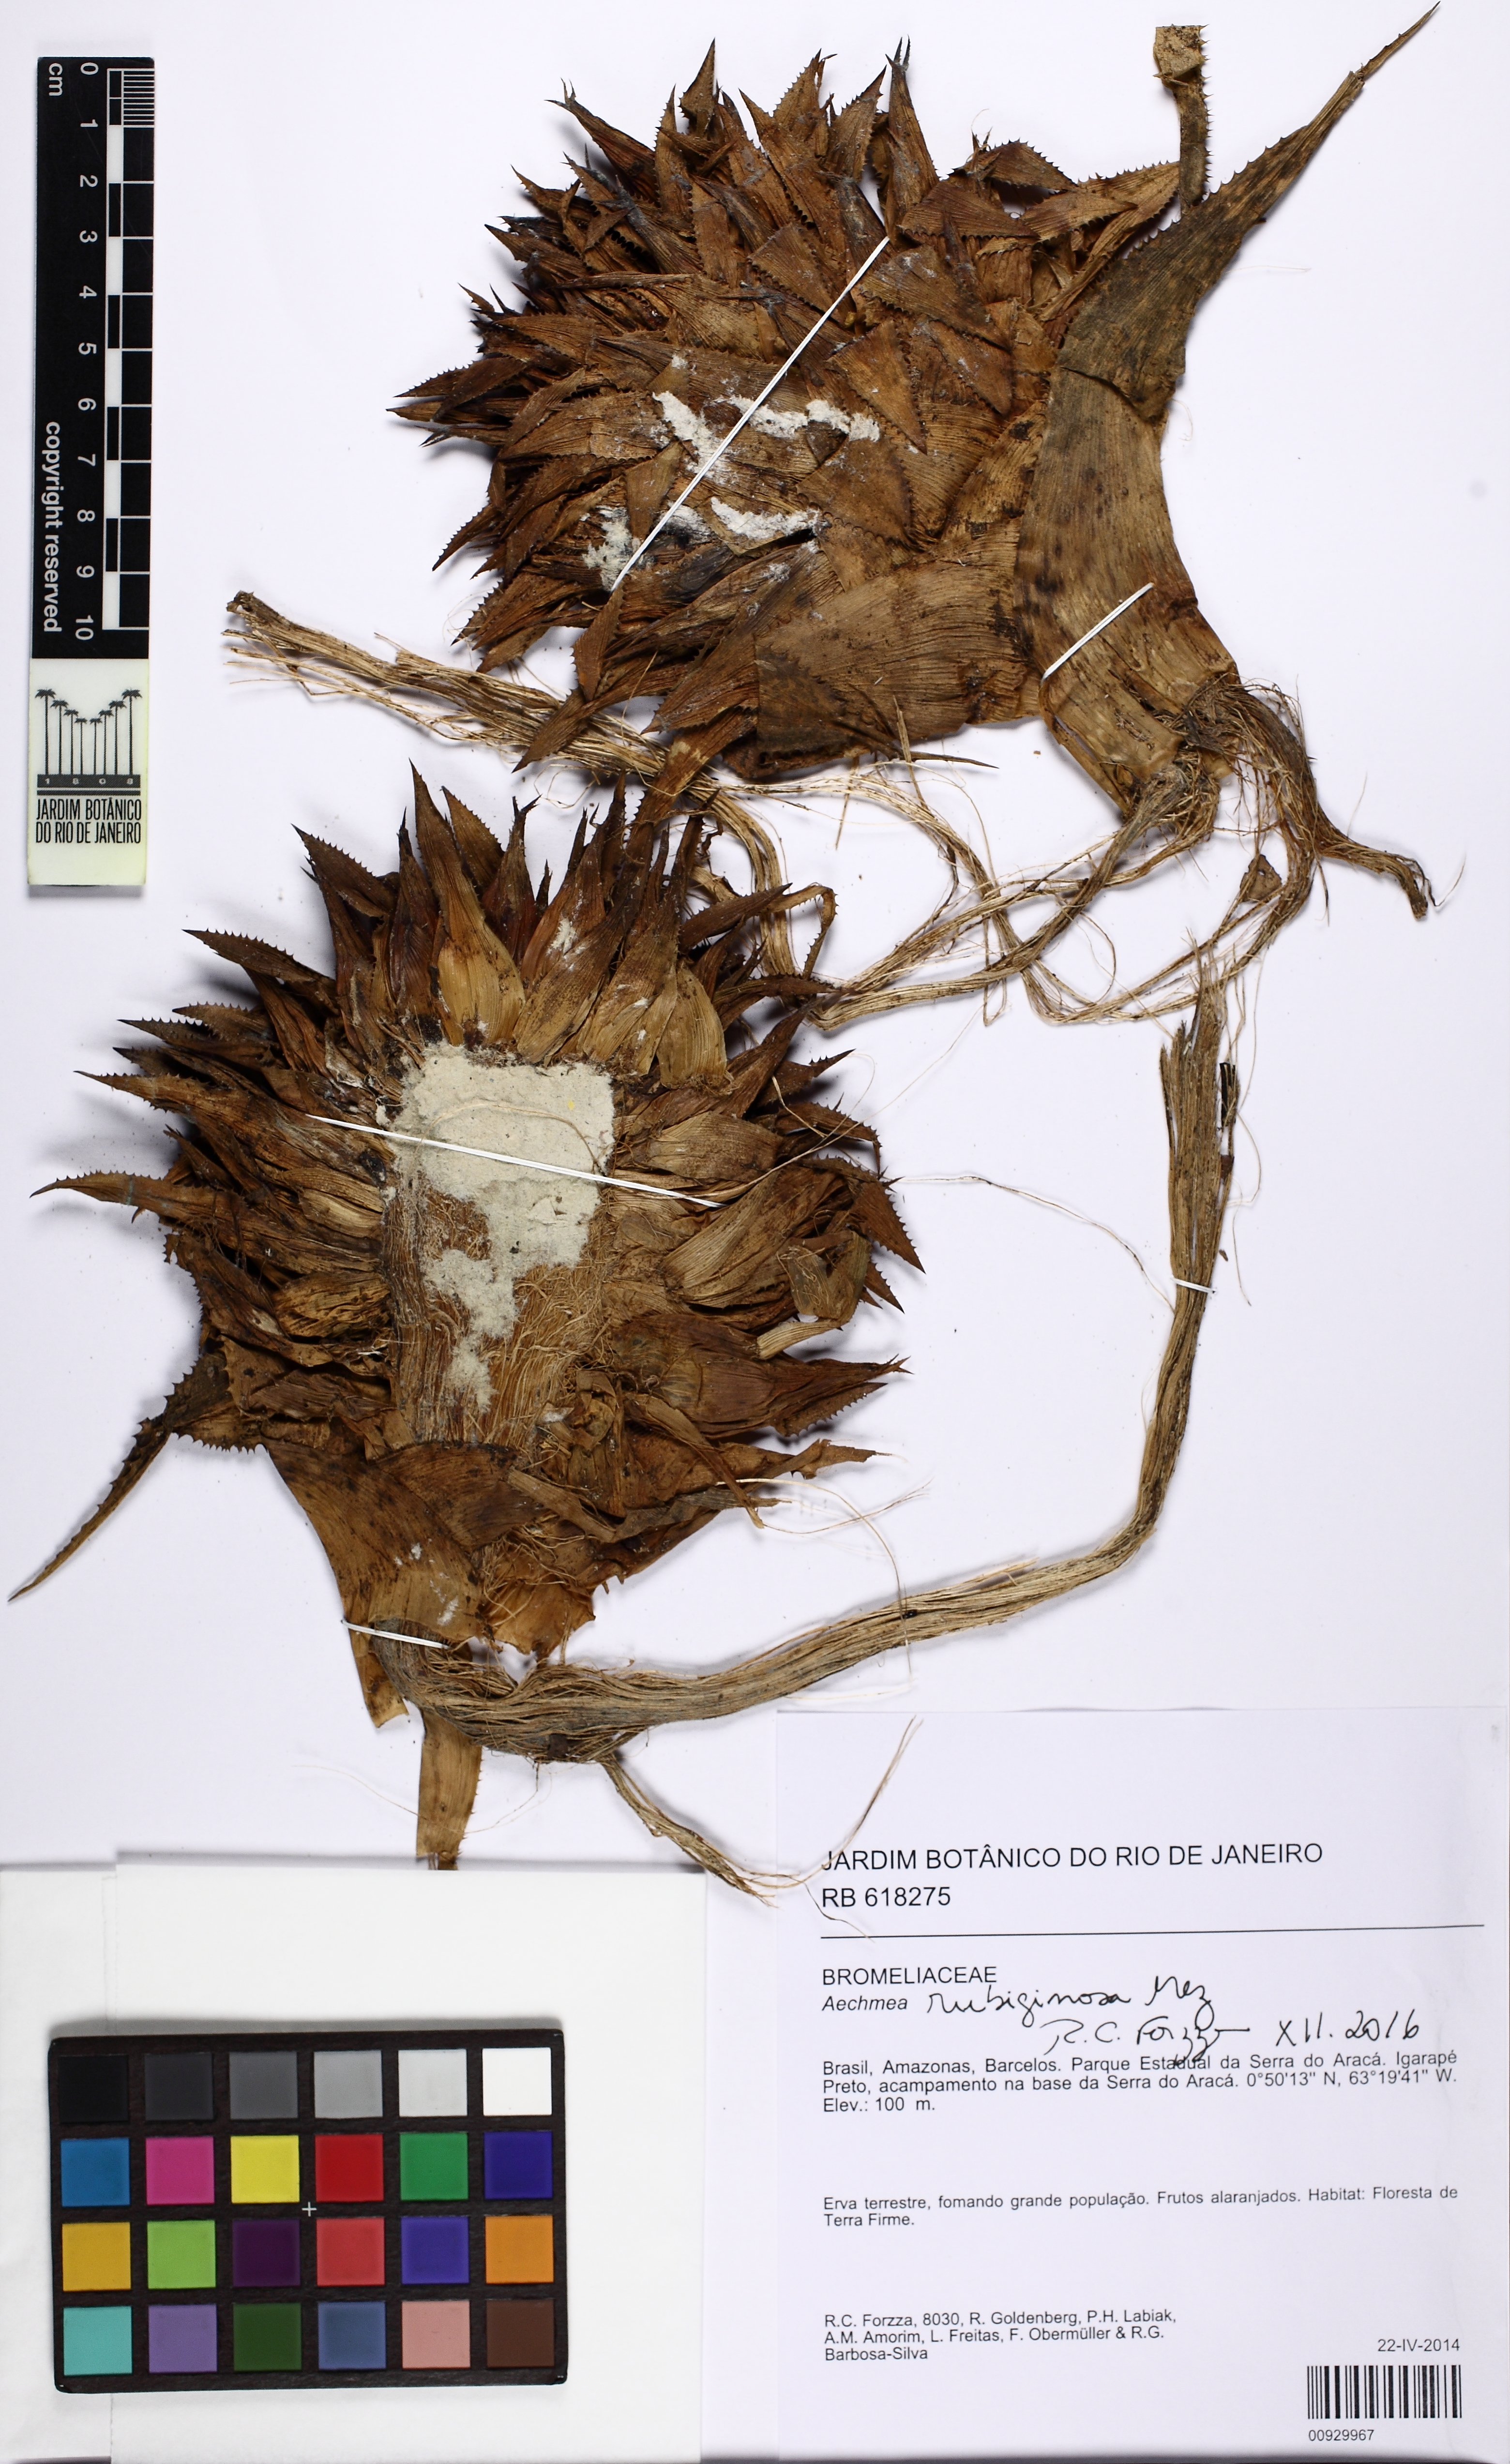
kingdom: Plantae
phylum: Tracheophyta
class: Liliopsida
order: Poales
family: Bromeliaceae
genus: Aechmea
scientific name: Aechmea rubiginosa
